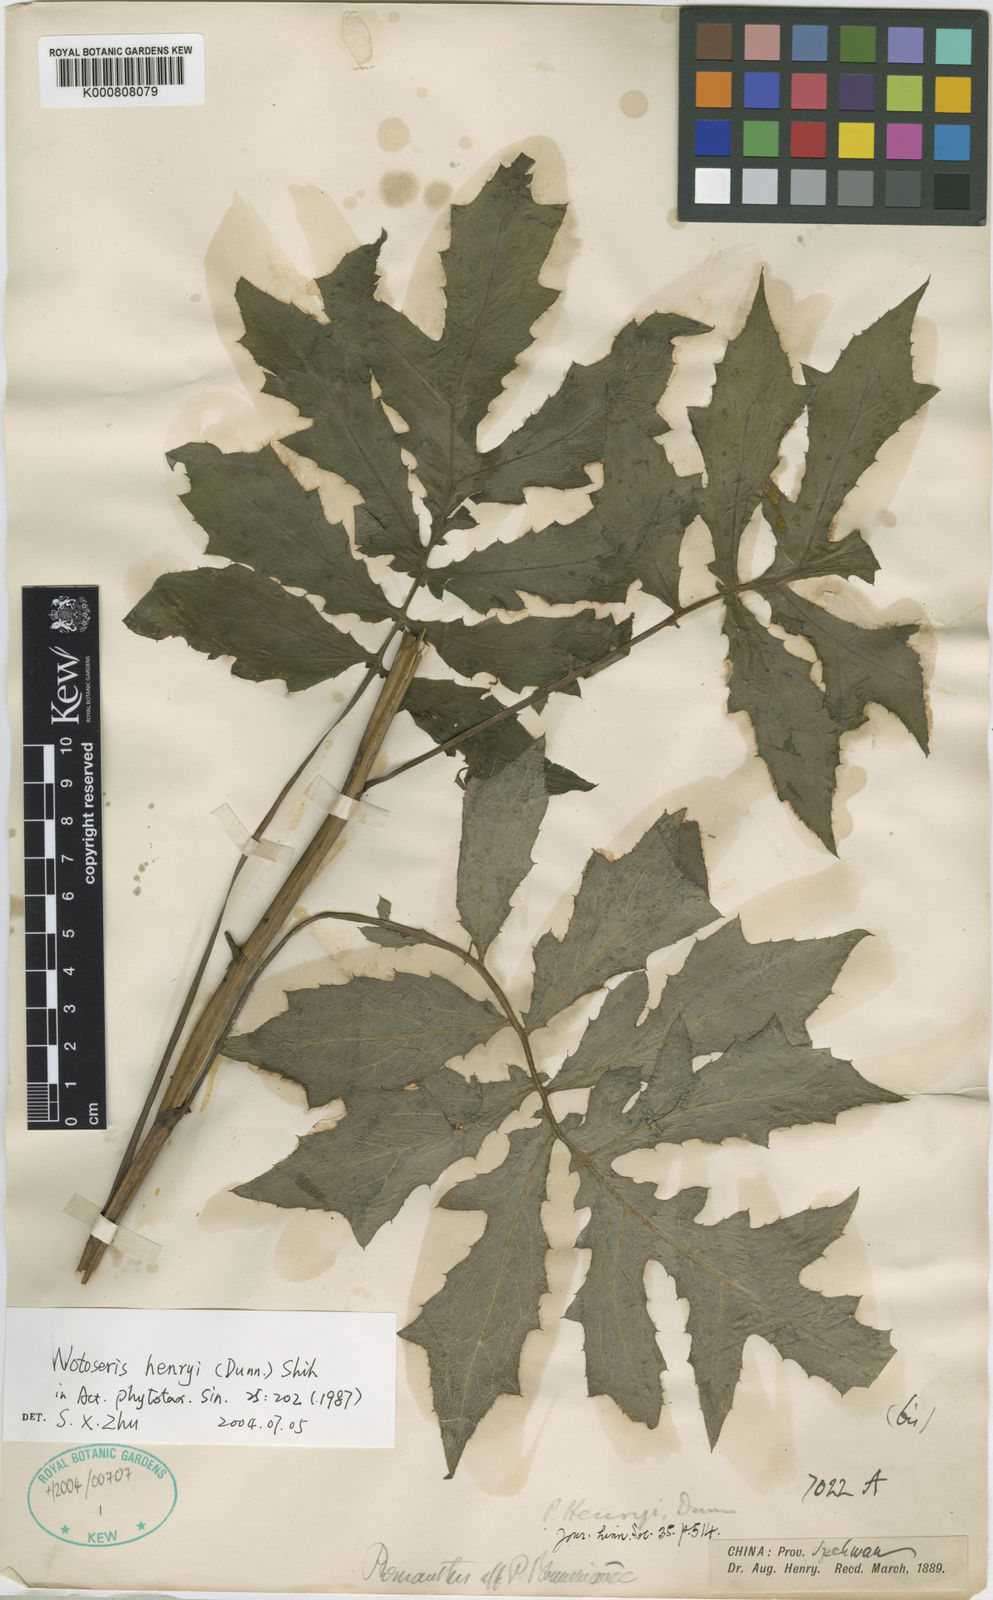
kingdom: Plantae
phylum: Tracheophyta
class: Magnoliopsida
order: Asterales
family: Asteraceae
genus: Notoseris
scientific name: Notoseris henryi
